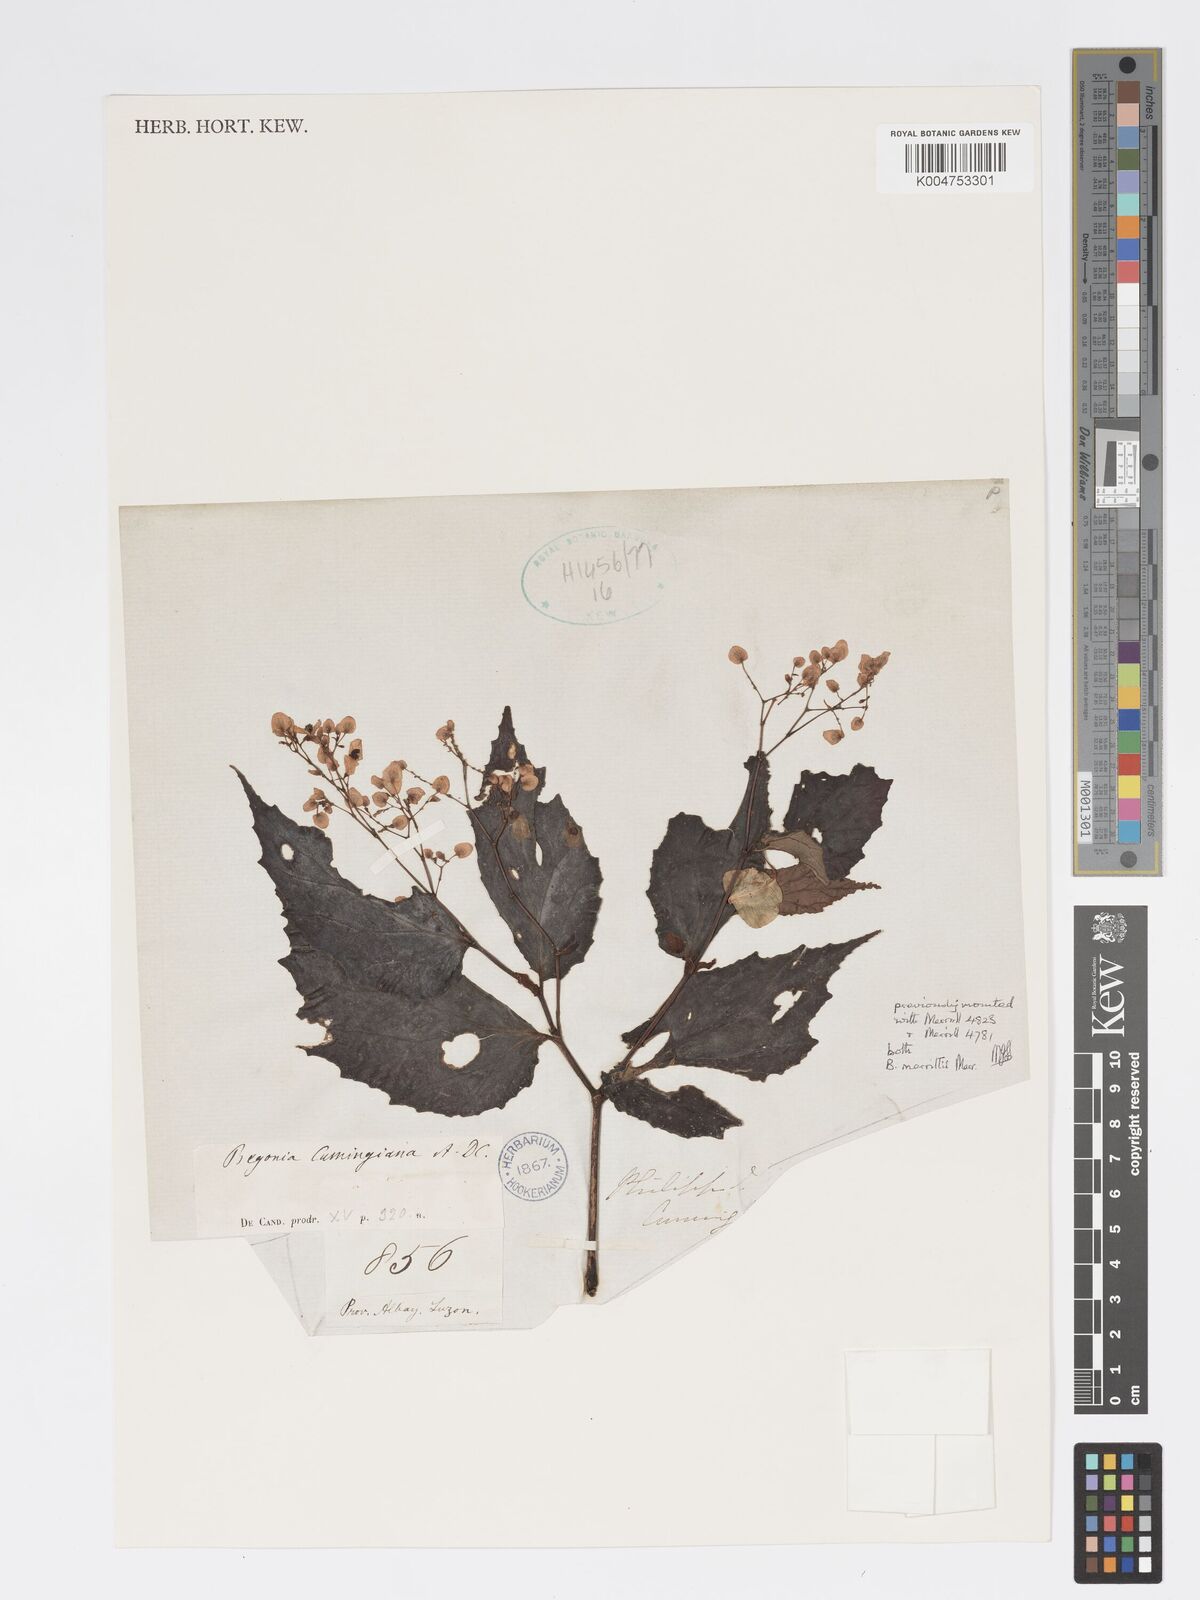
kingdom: Plantae
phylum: Tracheophyta
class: Magnoliopsida
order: Cucurbitales
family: Begoniaceae
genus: Begonia
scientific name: Begonia cumingiana
